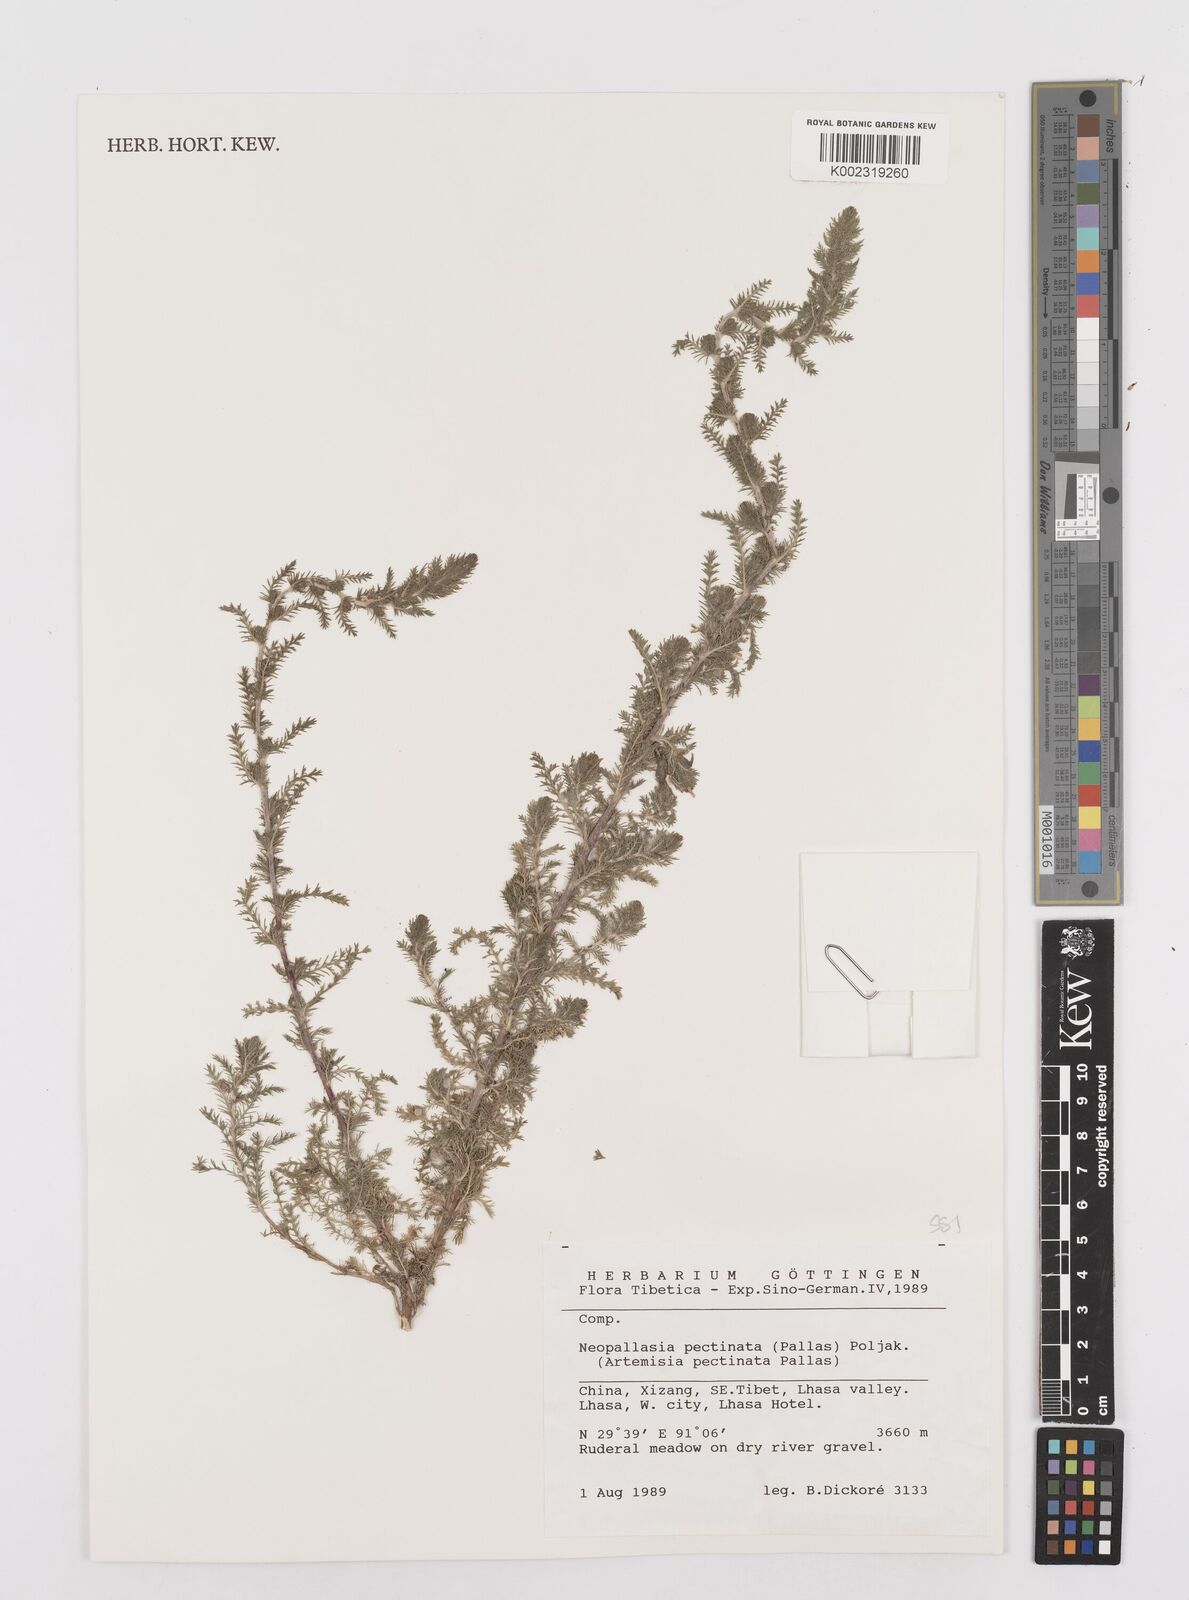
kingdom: Plantae
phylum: Tracheophyta
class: Magnoliopsida
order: Asterales
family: Asteraceae
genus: Neopallasia
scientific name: Neopallasia pectinata
